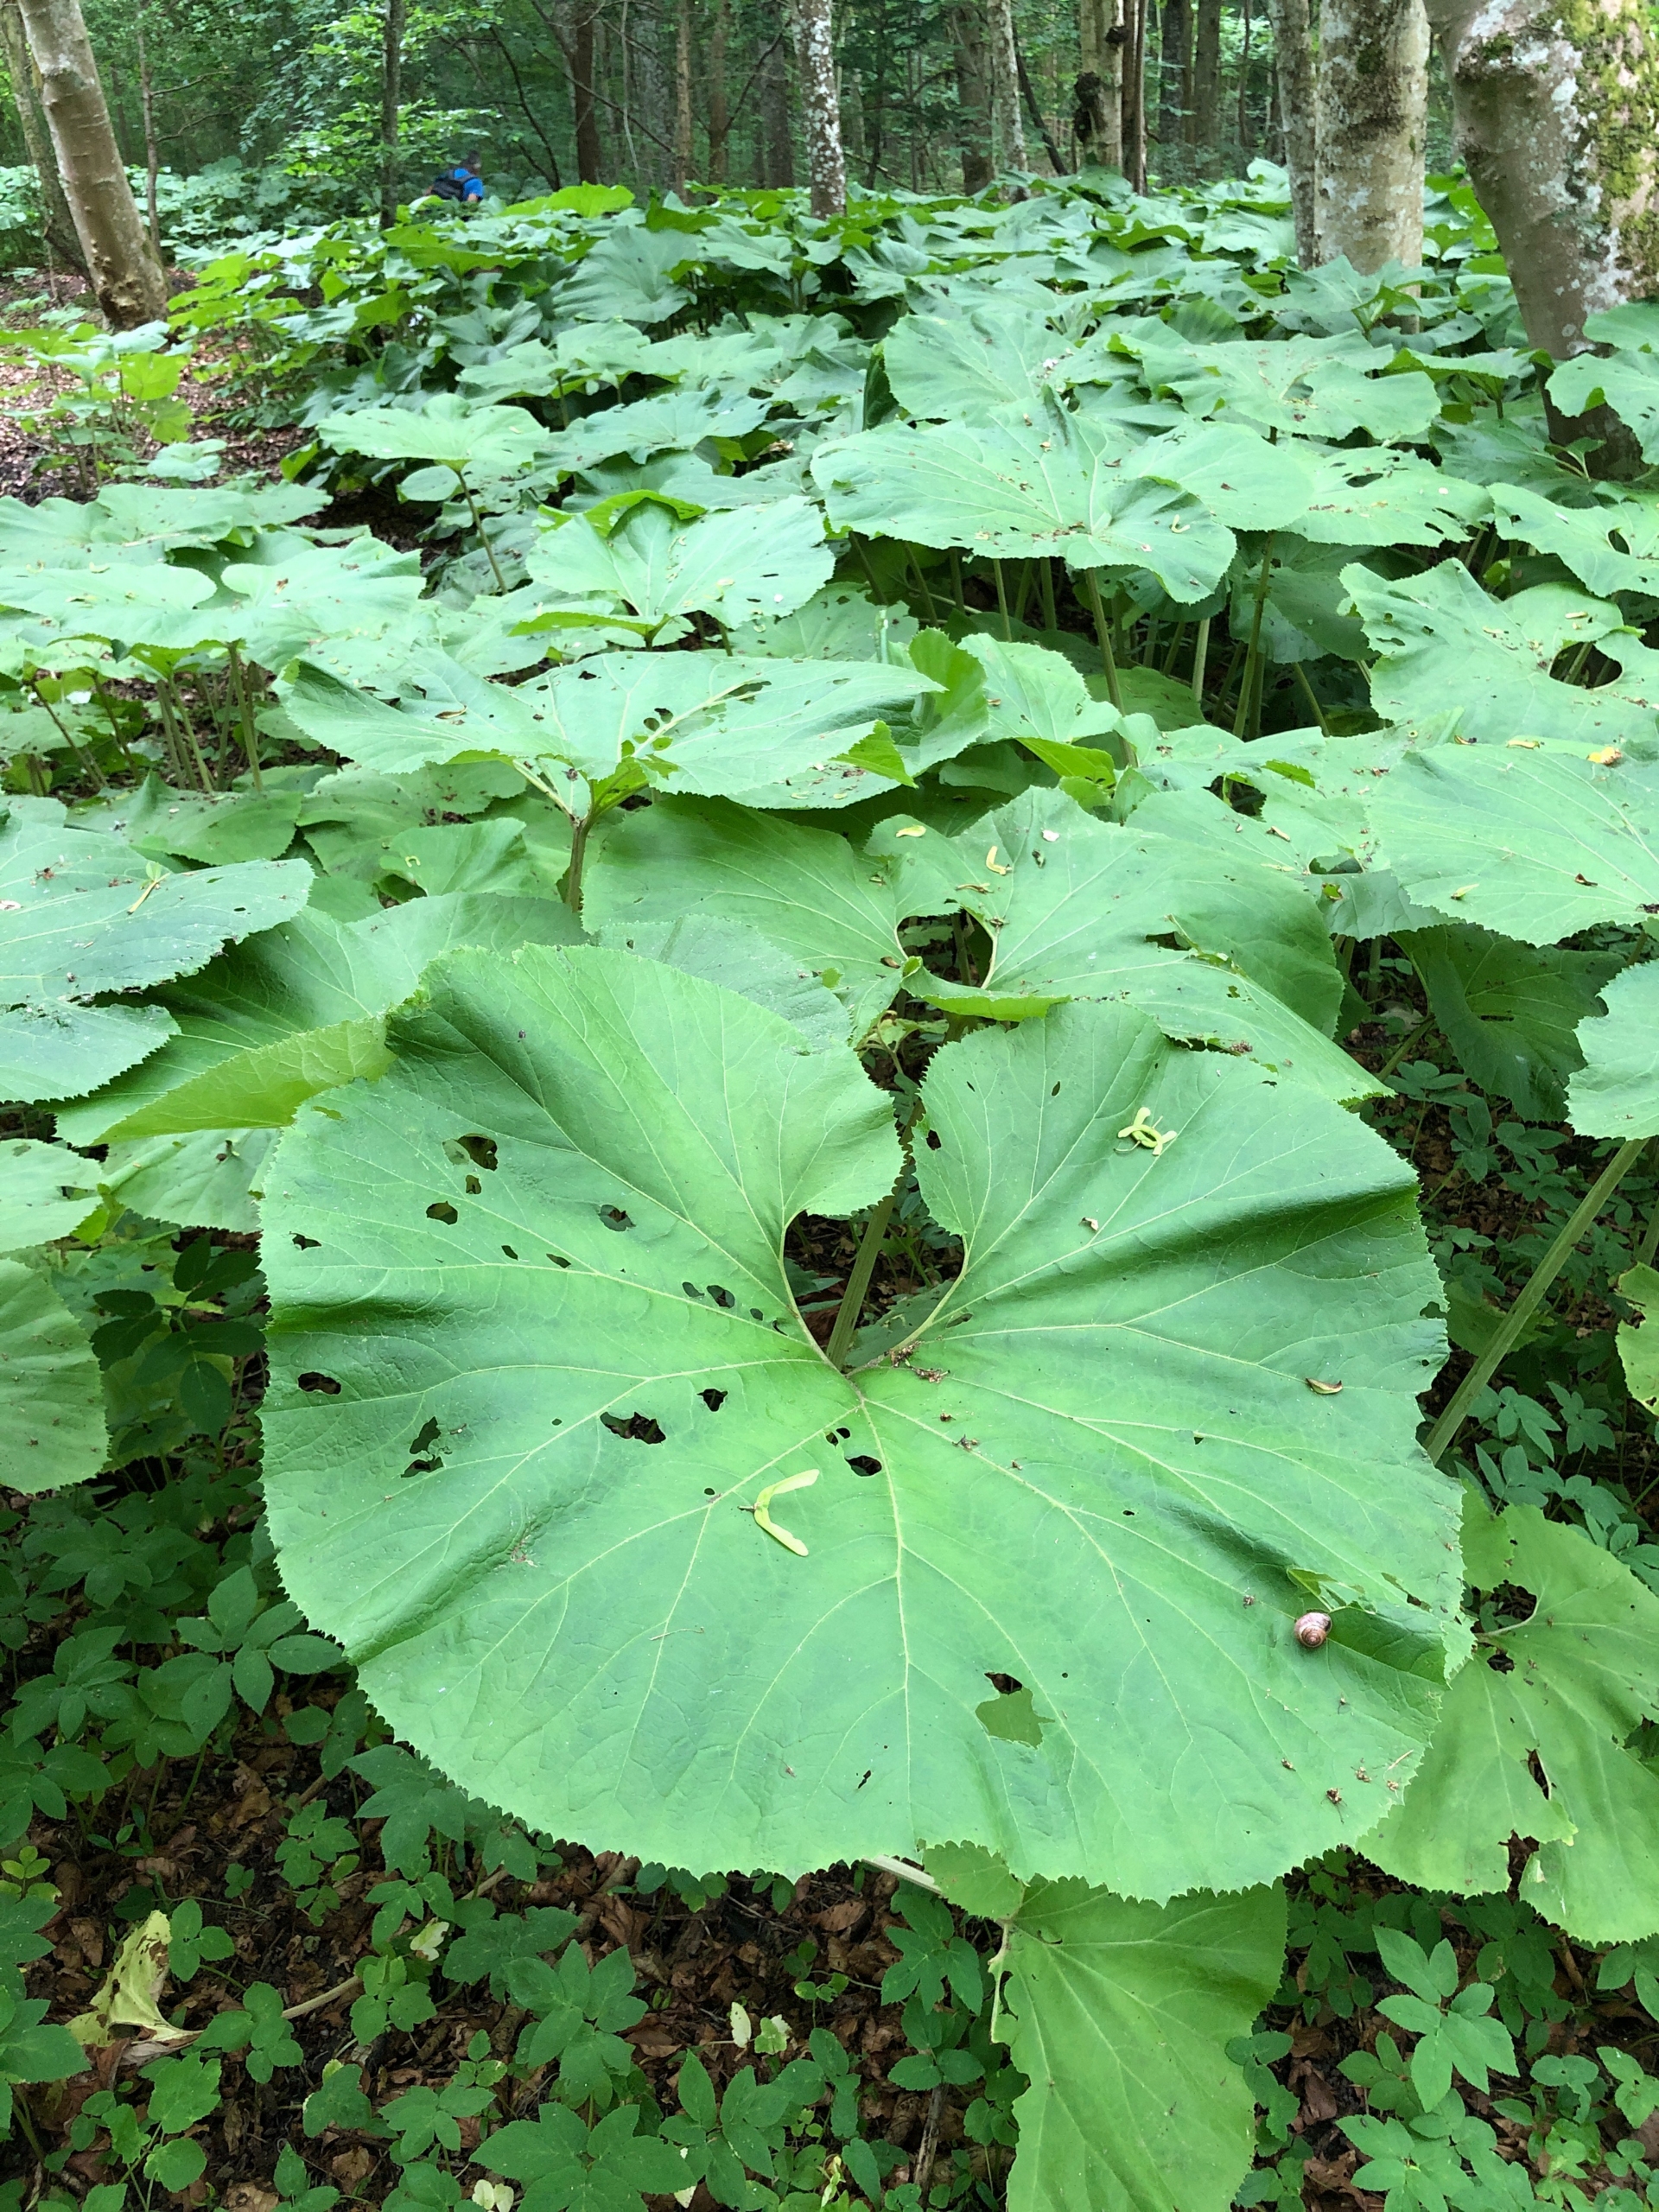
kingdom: Plantae
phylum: Tracheophyta
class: Magnoliopsida
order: Asterales
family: Asteraceae
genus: Petasites
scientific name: Petasites japonicus
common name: Japansk hestehov
